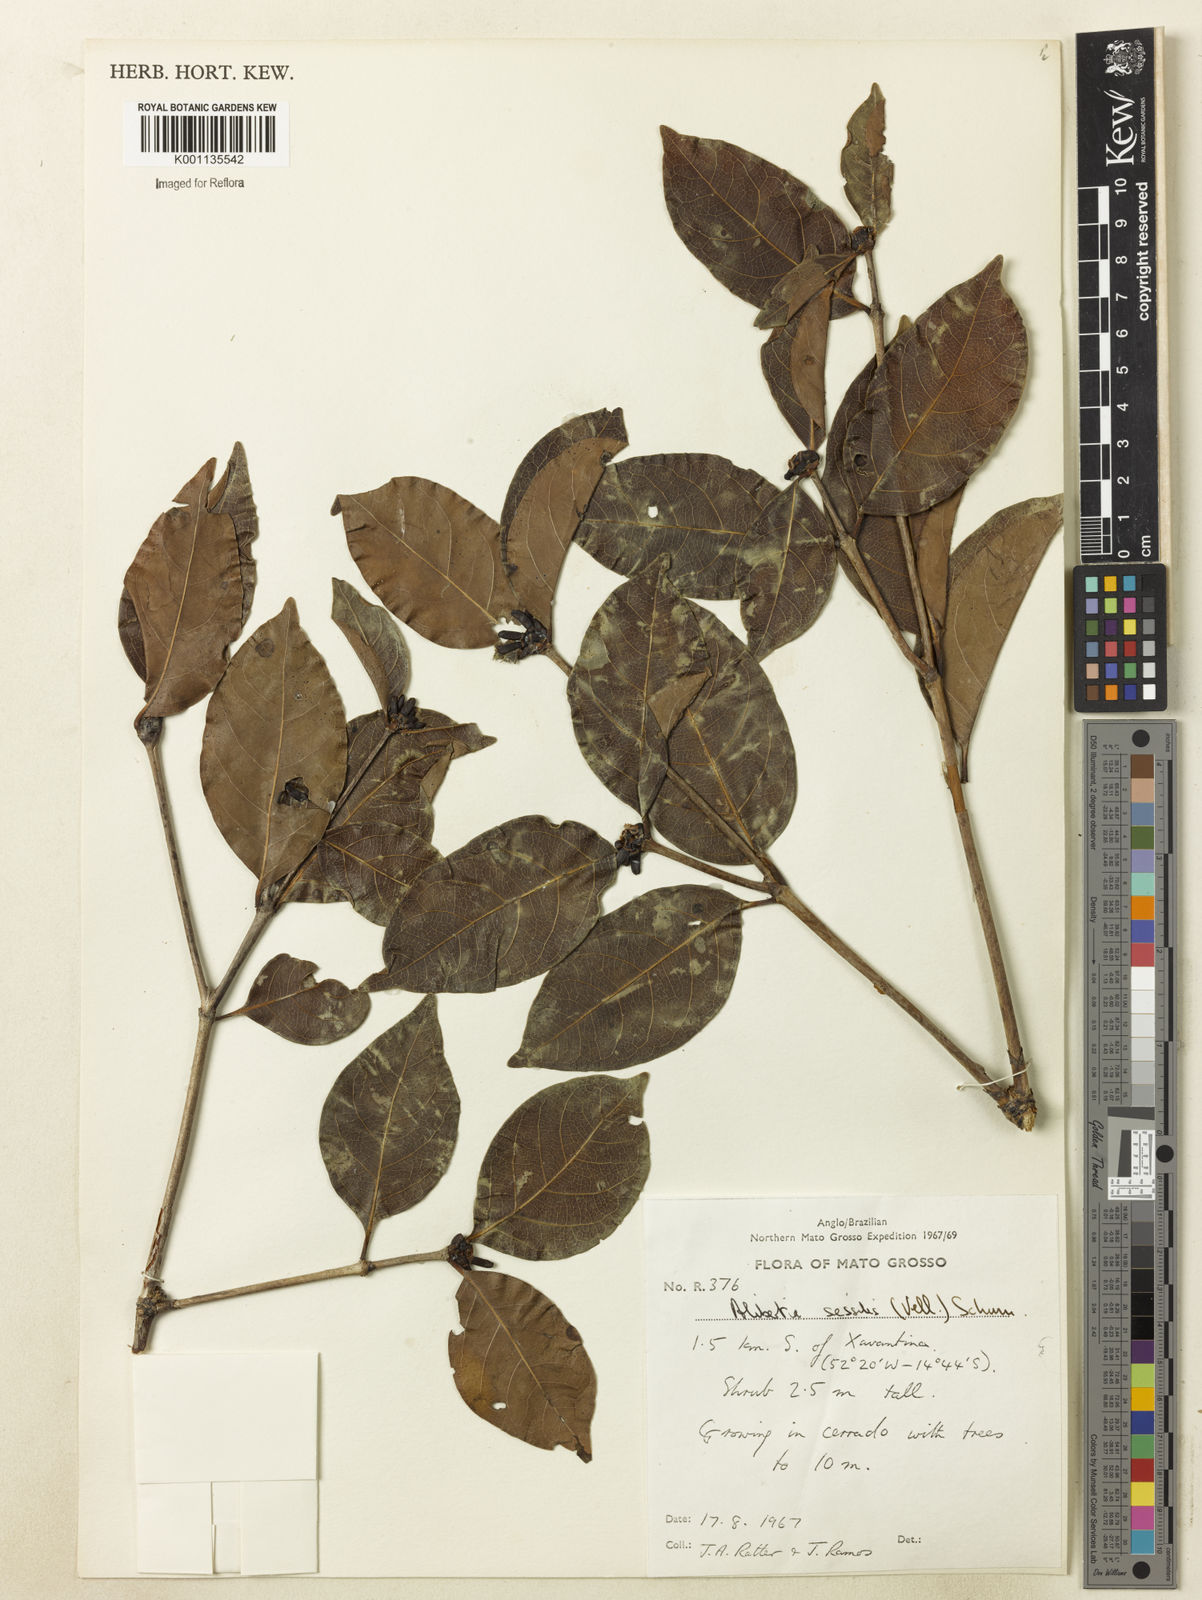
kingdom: Plantae
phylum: Tracheophyta
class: Magnoliopsida
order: Gentianales
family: Rubiaceae
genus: Cordiera
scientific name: Cordiera sessilis
